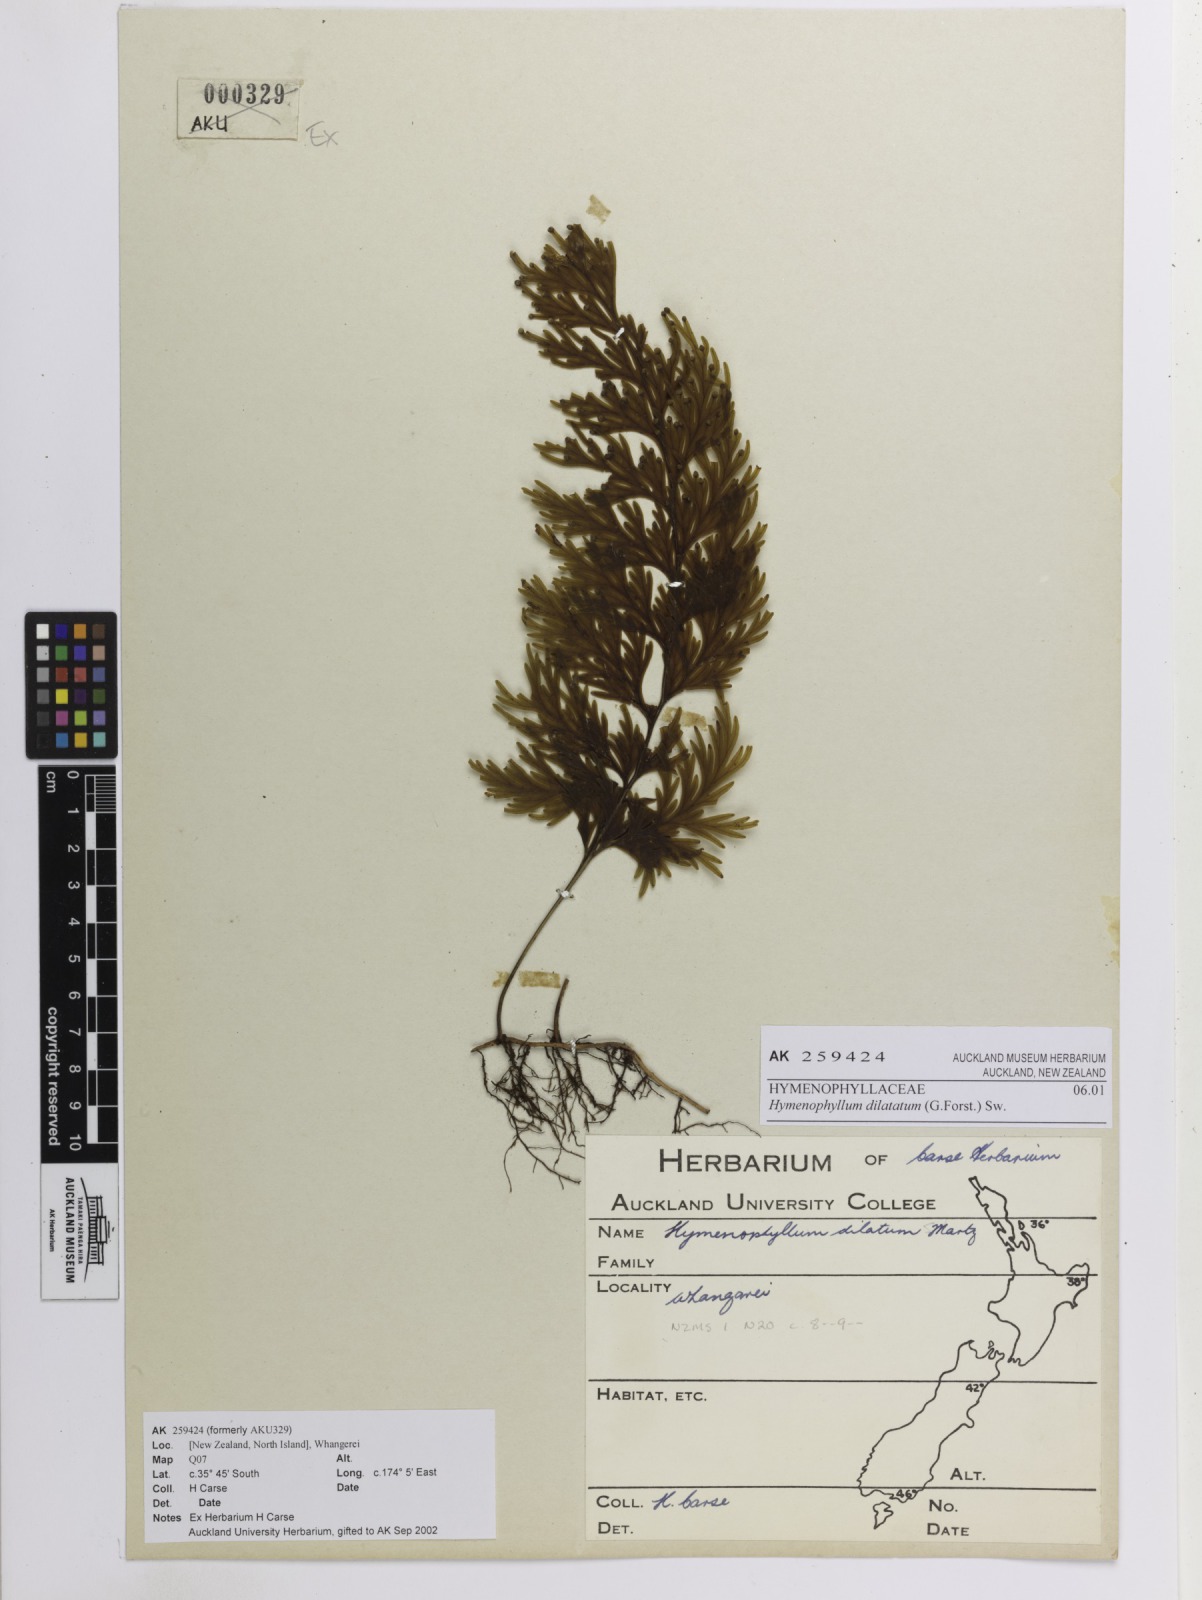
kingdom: Plantae
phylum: Tracheophyta
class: Polypodiopsida
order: Hymenophyllales
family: Hymenophyllaceae
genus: Hymenophyllum
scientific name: Hymenophyllum dilatatum
